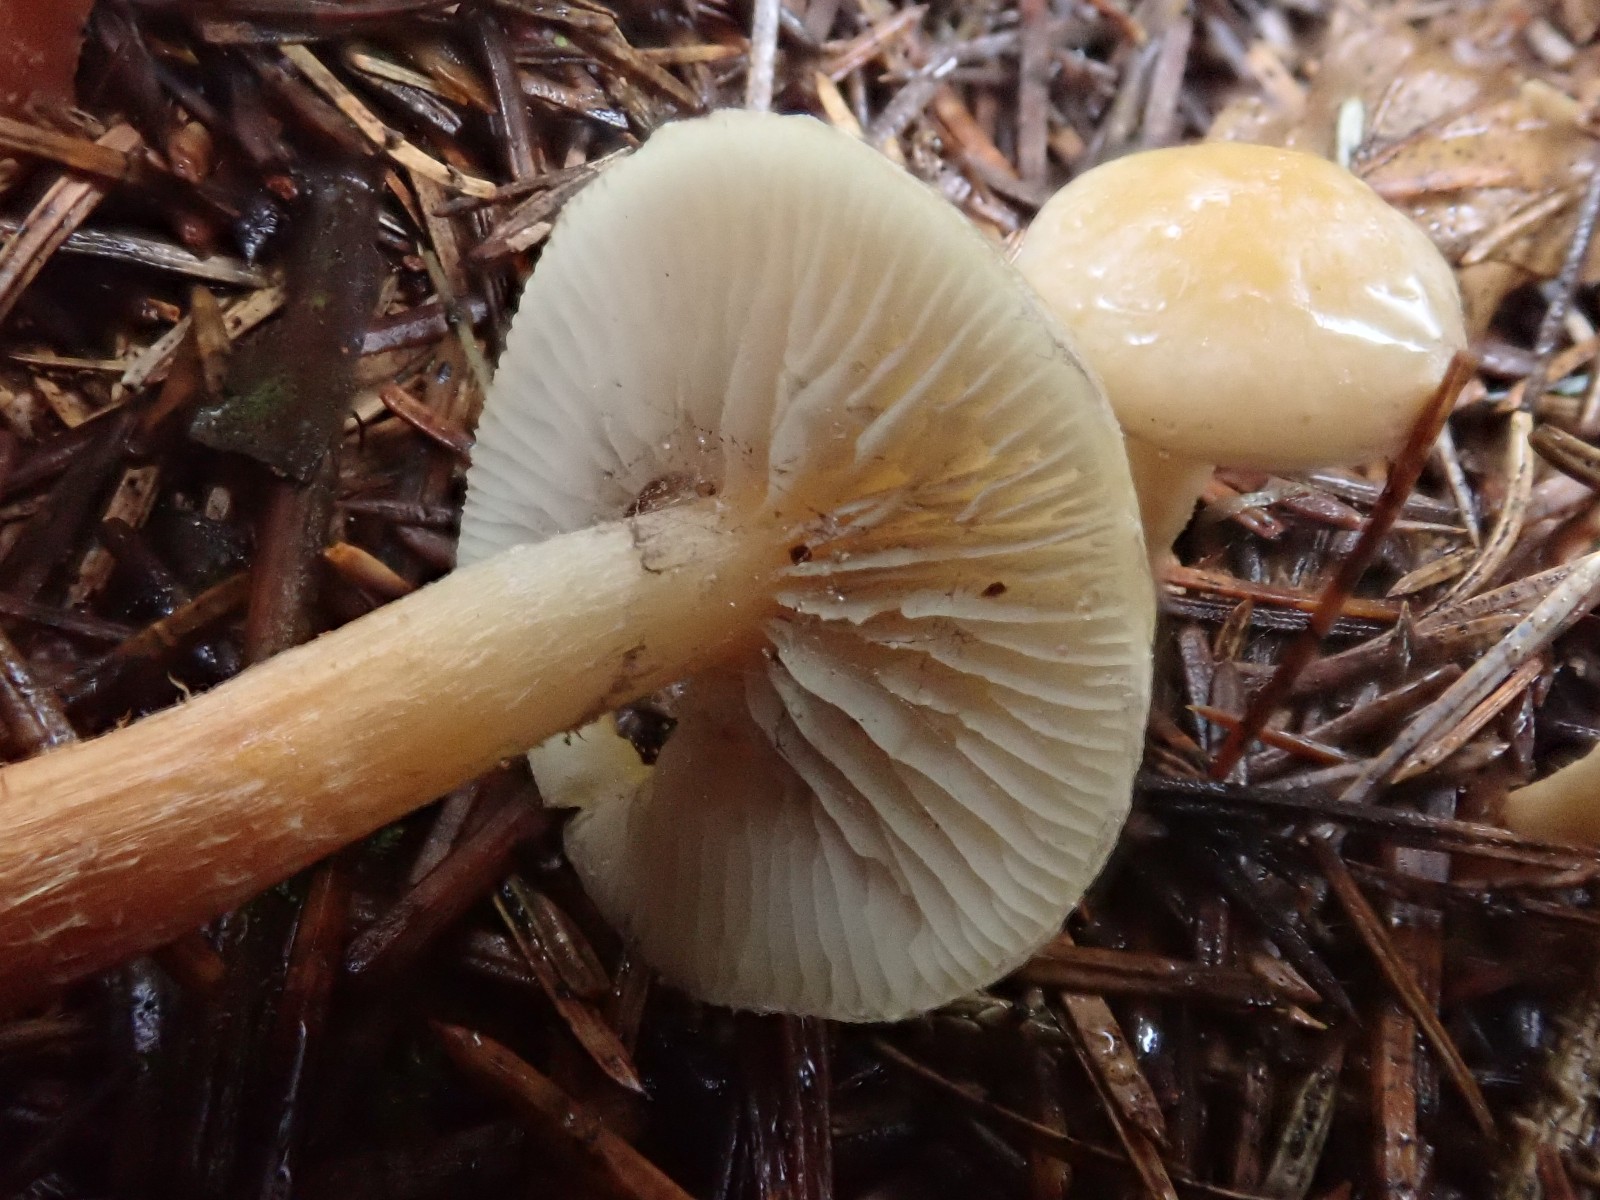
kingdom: Fungi
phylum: Basidiomycota
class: Agaricomycetes
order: Agaricales
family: Strophariaceae
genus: Hypholoma
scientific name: Hypholoma capnoides
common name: gran-svovlhat
